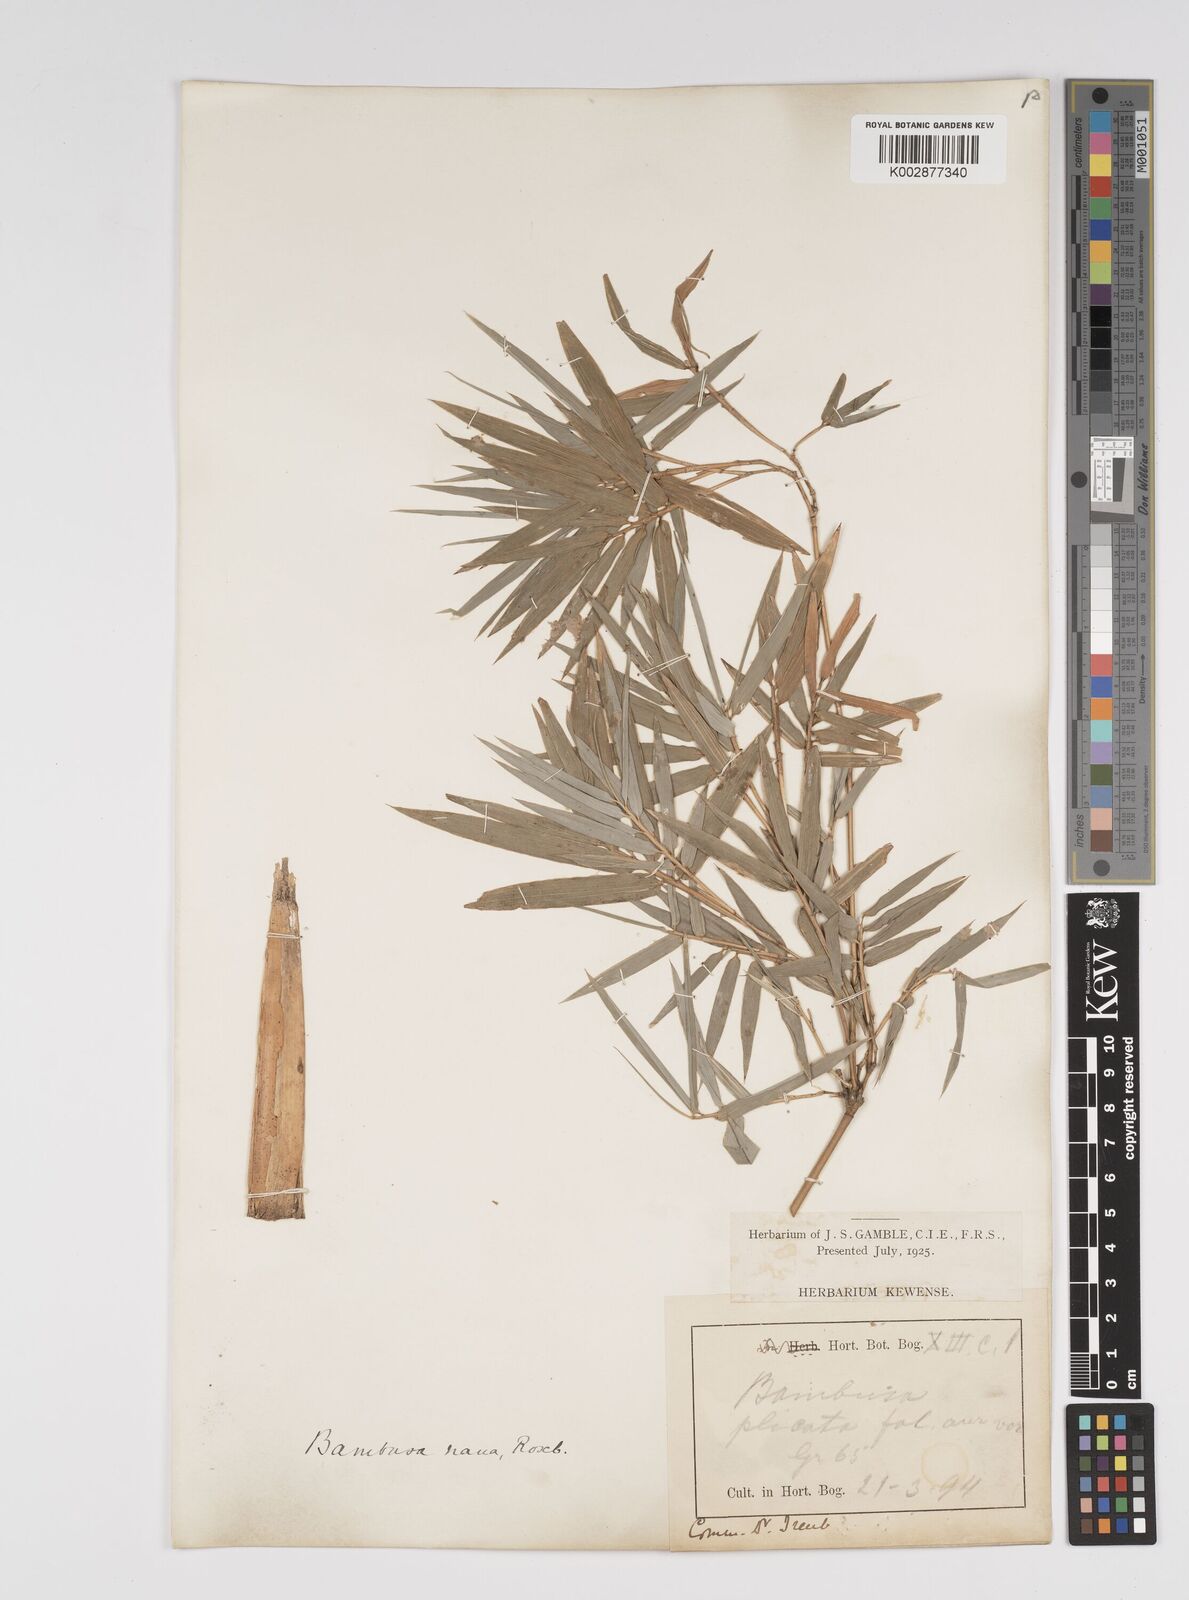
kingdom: Plantae
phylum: Tracheophyta
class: Liliopsida
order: Poales
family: Poaceae
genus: Bambusa
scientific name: Bambusa multiplex
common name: Hedge bamboo
